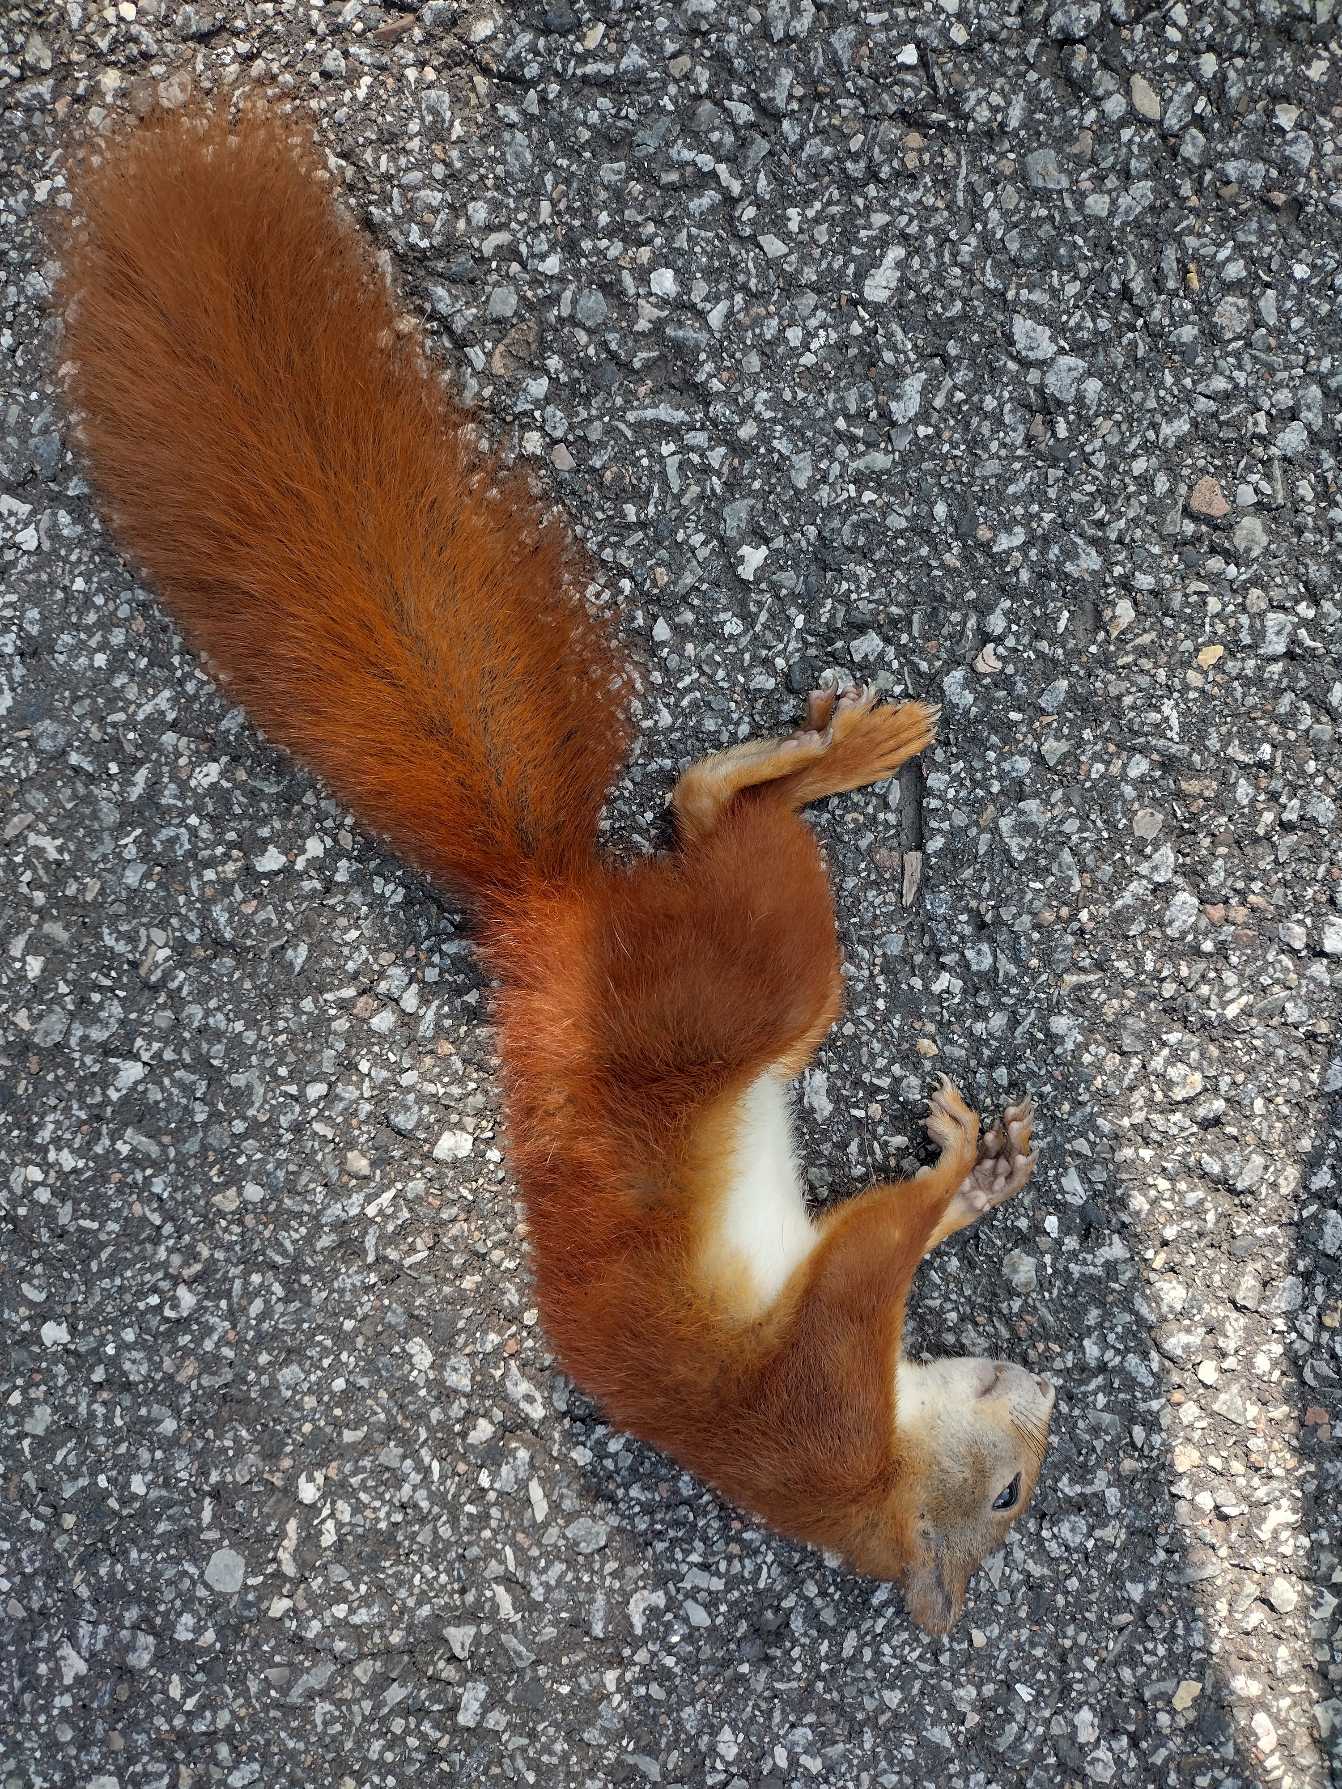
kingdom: Animalia
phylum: Chordata
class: Mammalia
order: Rodentia
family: Sciuridae
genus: Sciurus
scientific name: Sciurus vulgaris
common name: Egern
